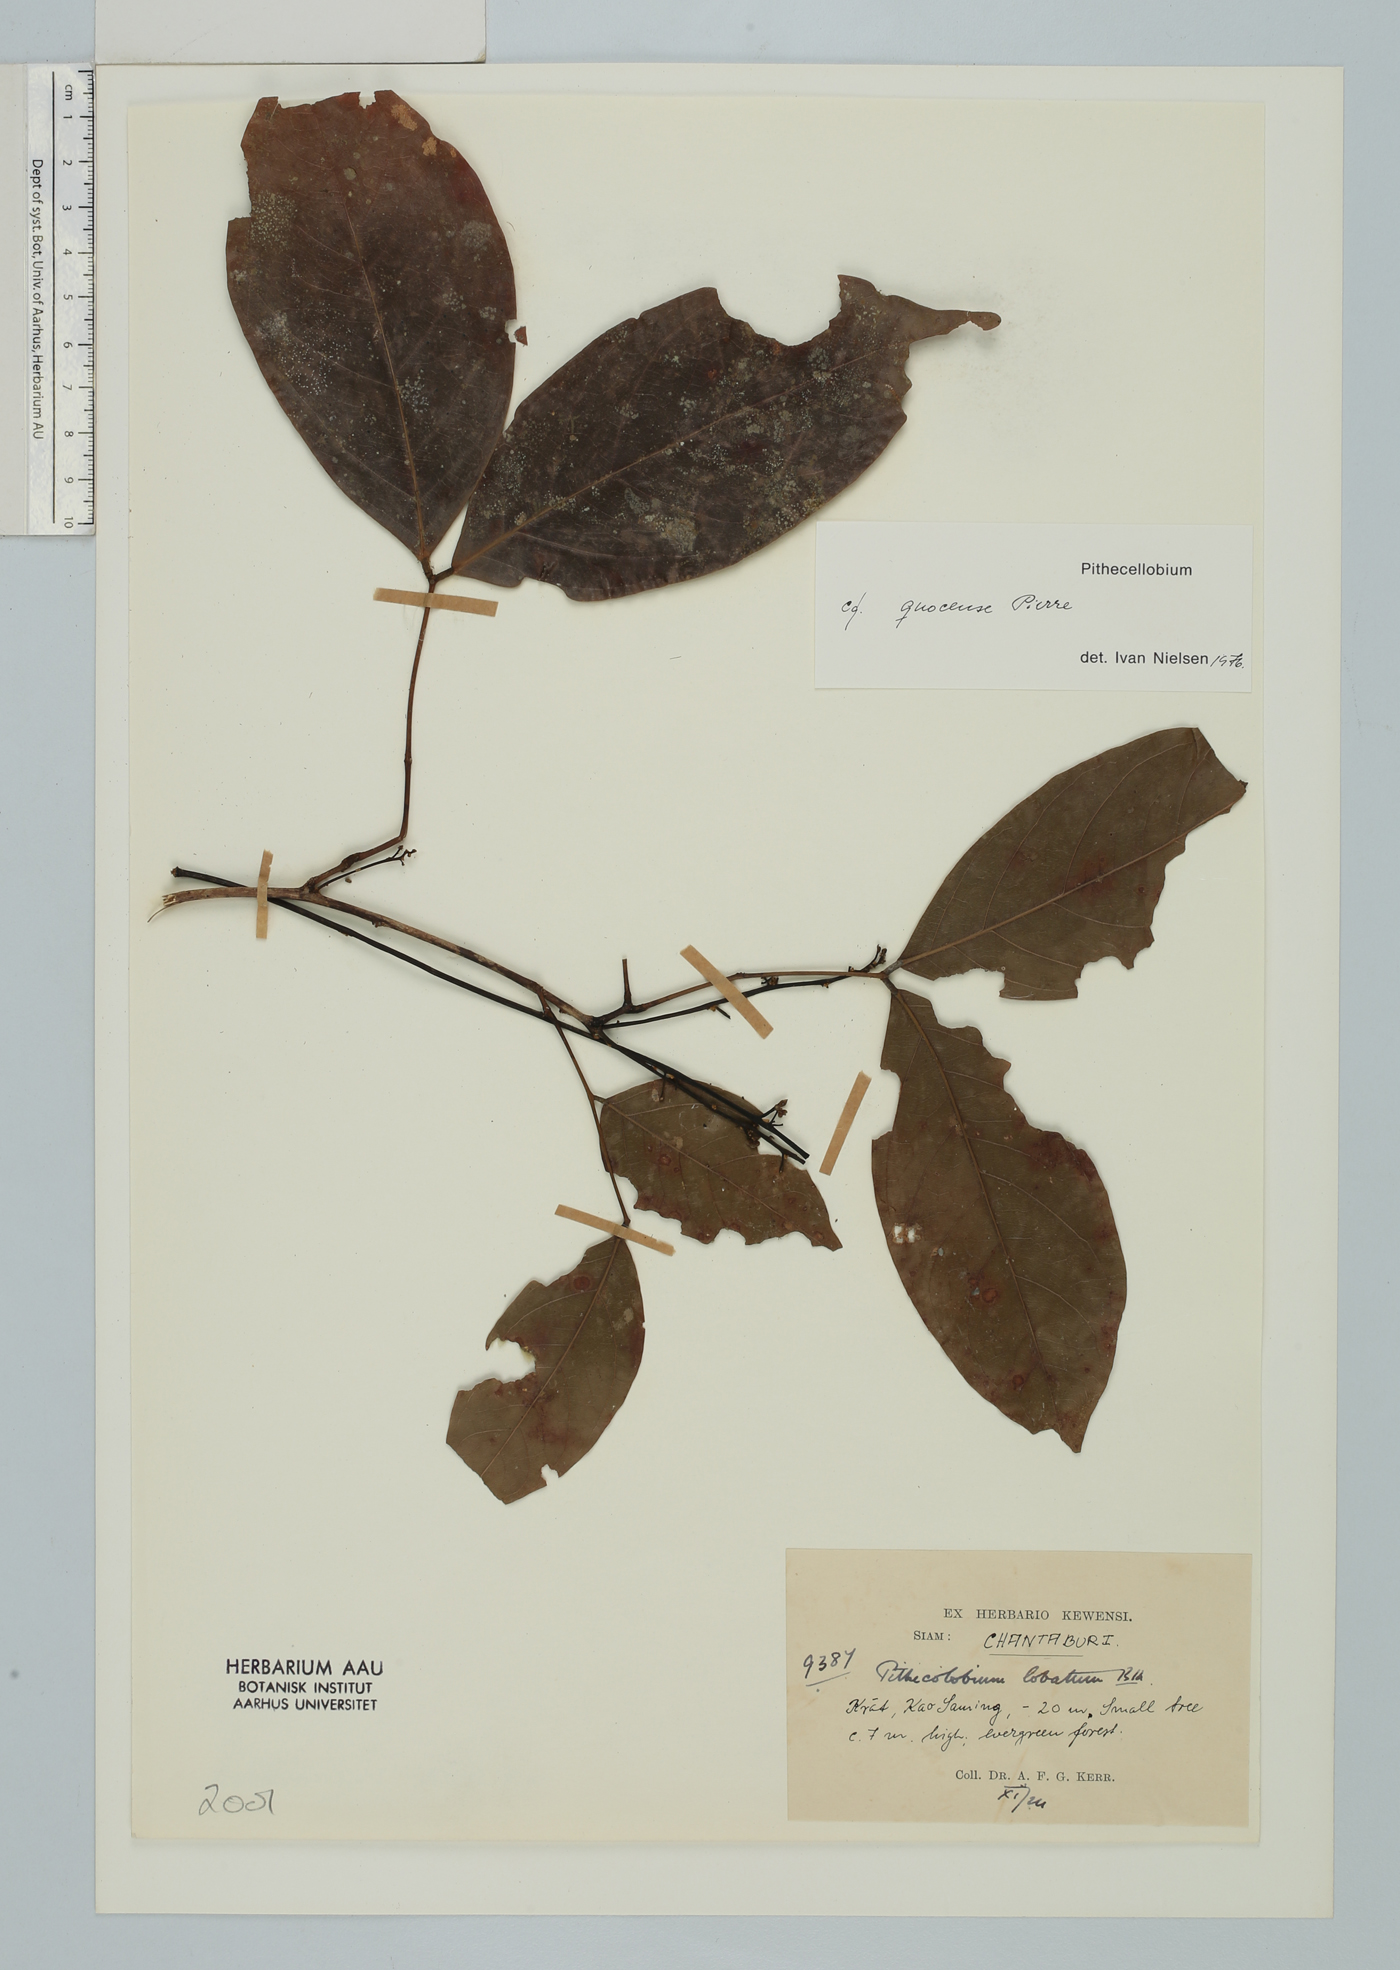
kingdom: Plantae
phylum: Tracheophyta
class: Magnoliopsida
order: Fabales
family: Fabaceae
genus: Archidendron
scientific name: Archidendron quocense
